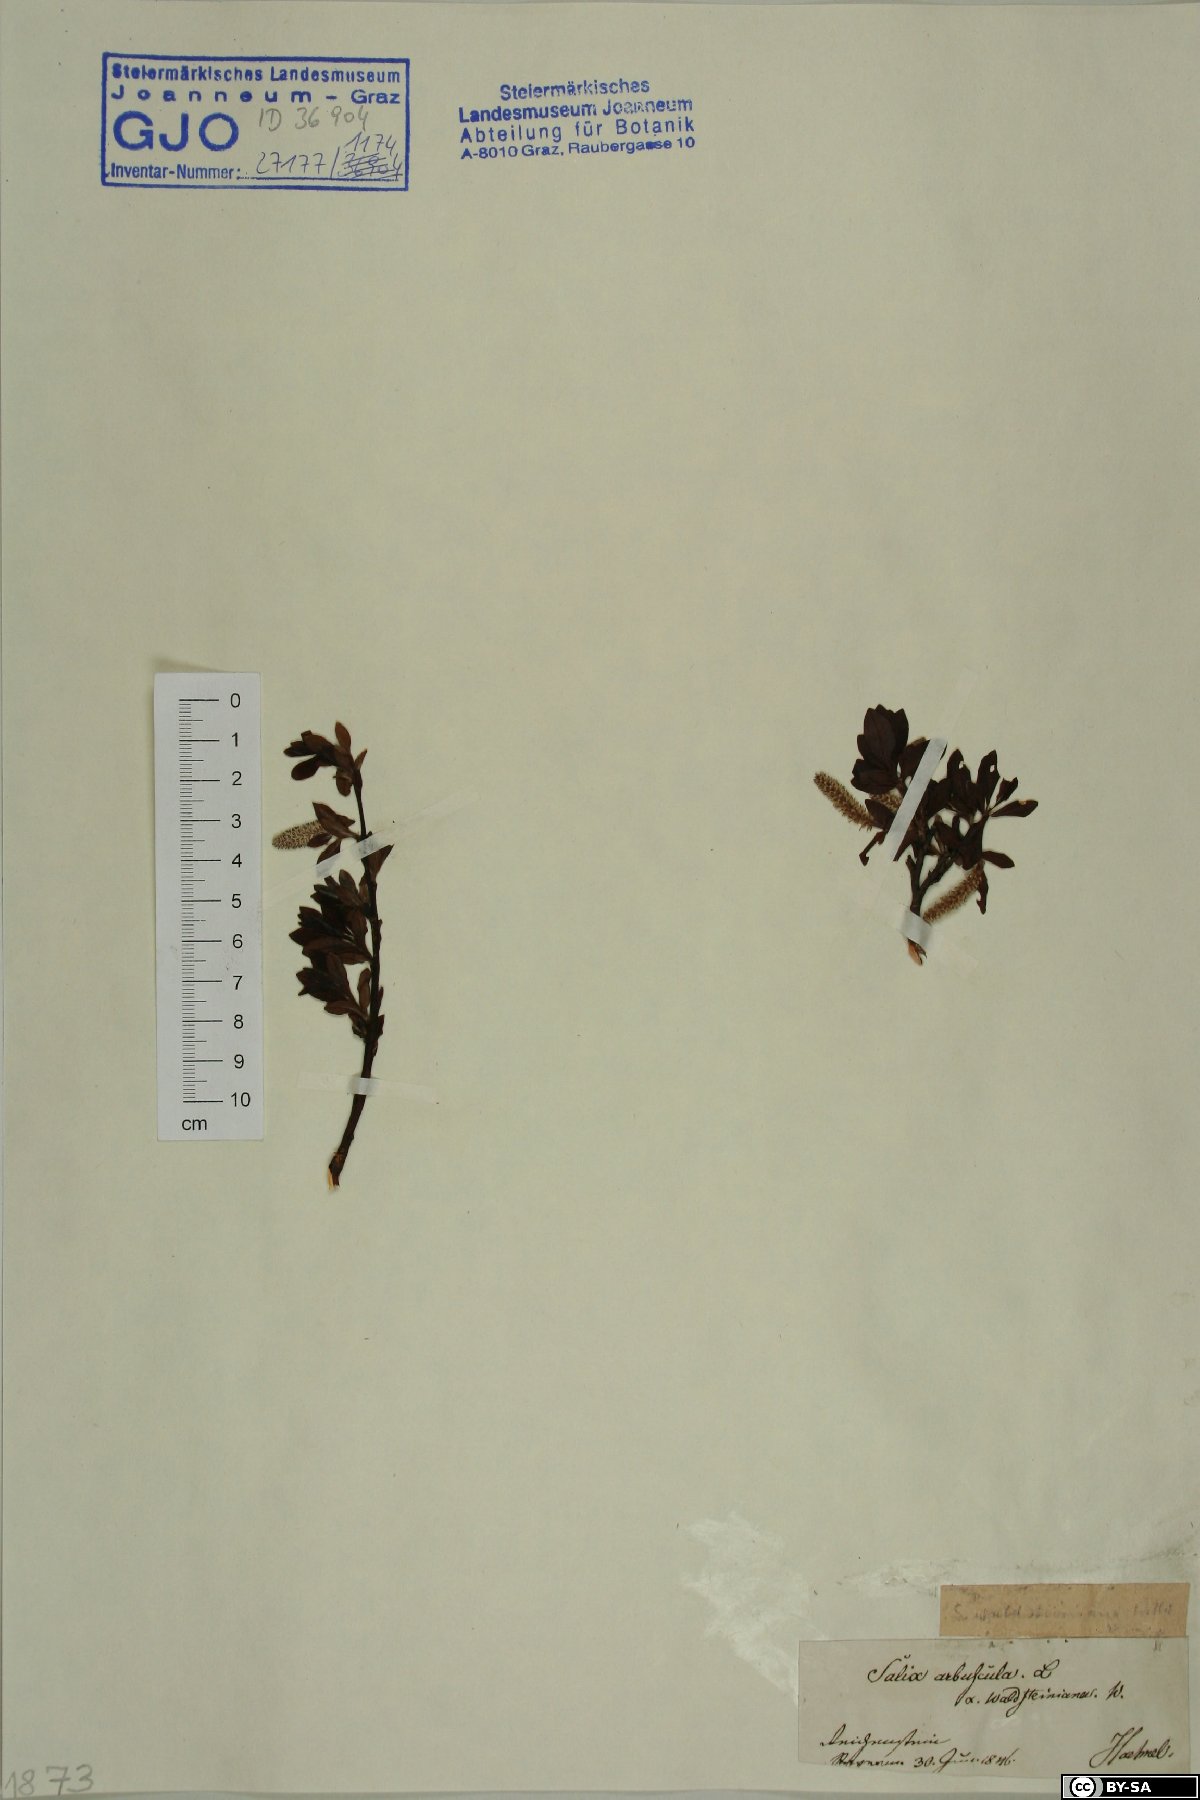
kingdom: Plantae
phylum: Tracheophyta
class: Magnoliopsida
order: Malpighiales
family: Salicaceae
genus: Salix
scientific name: Salix waldsteiniana
